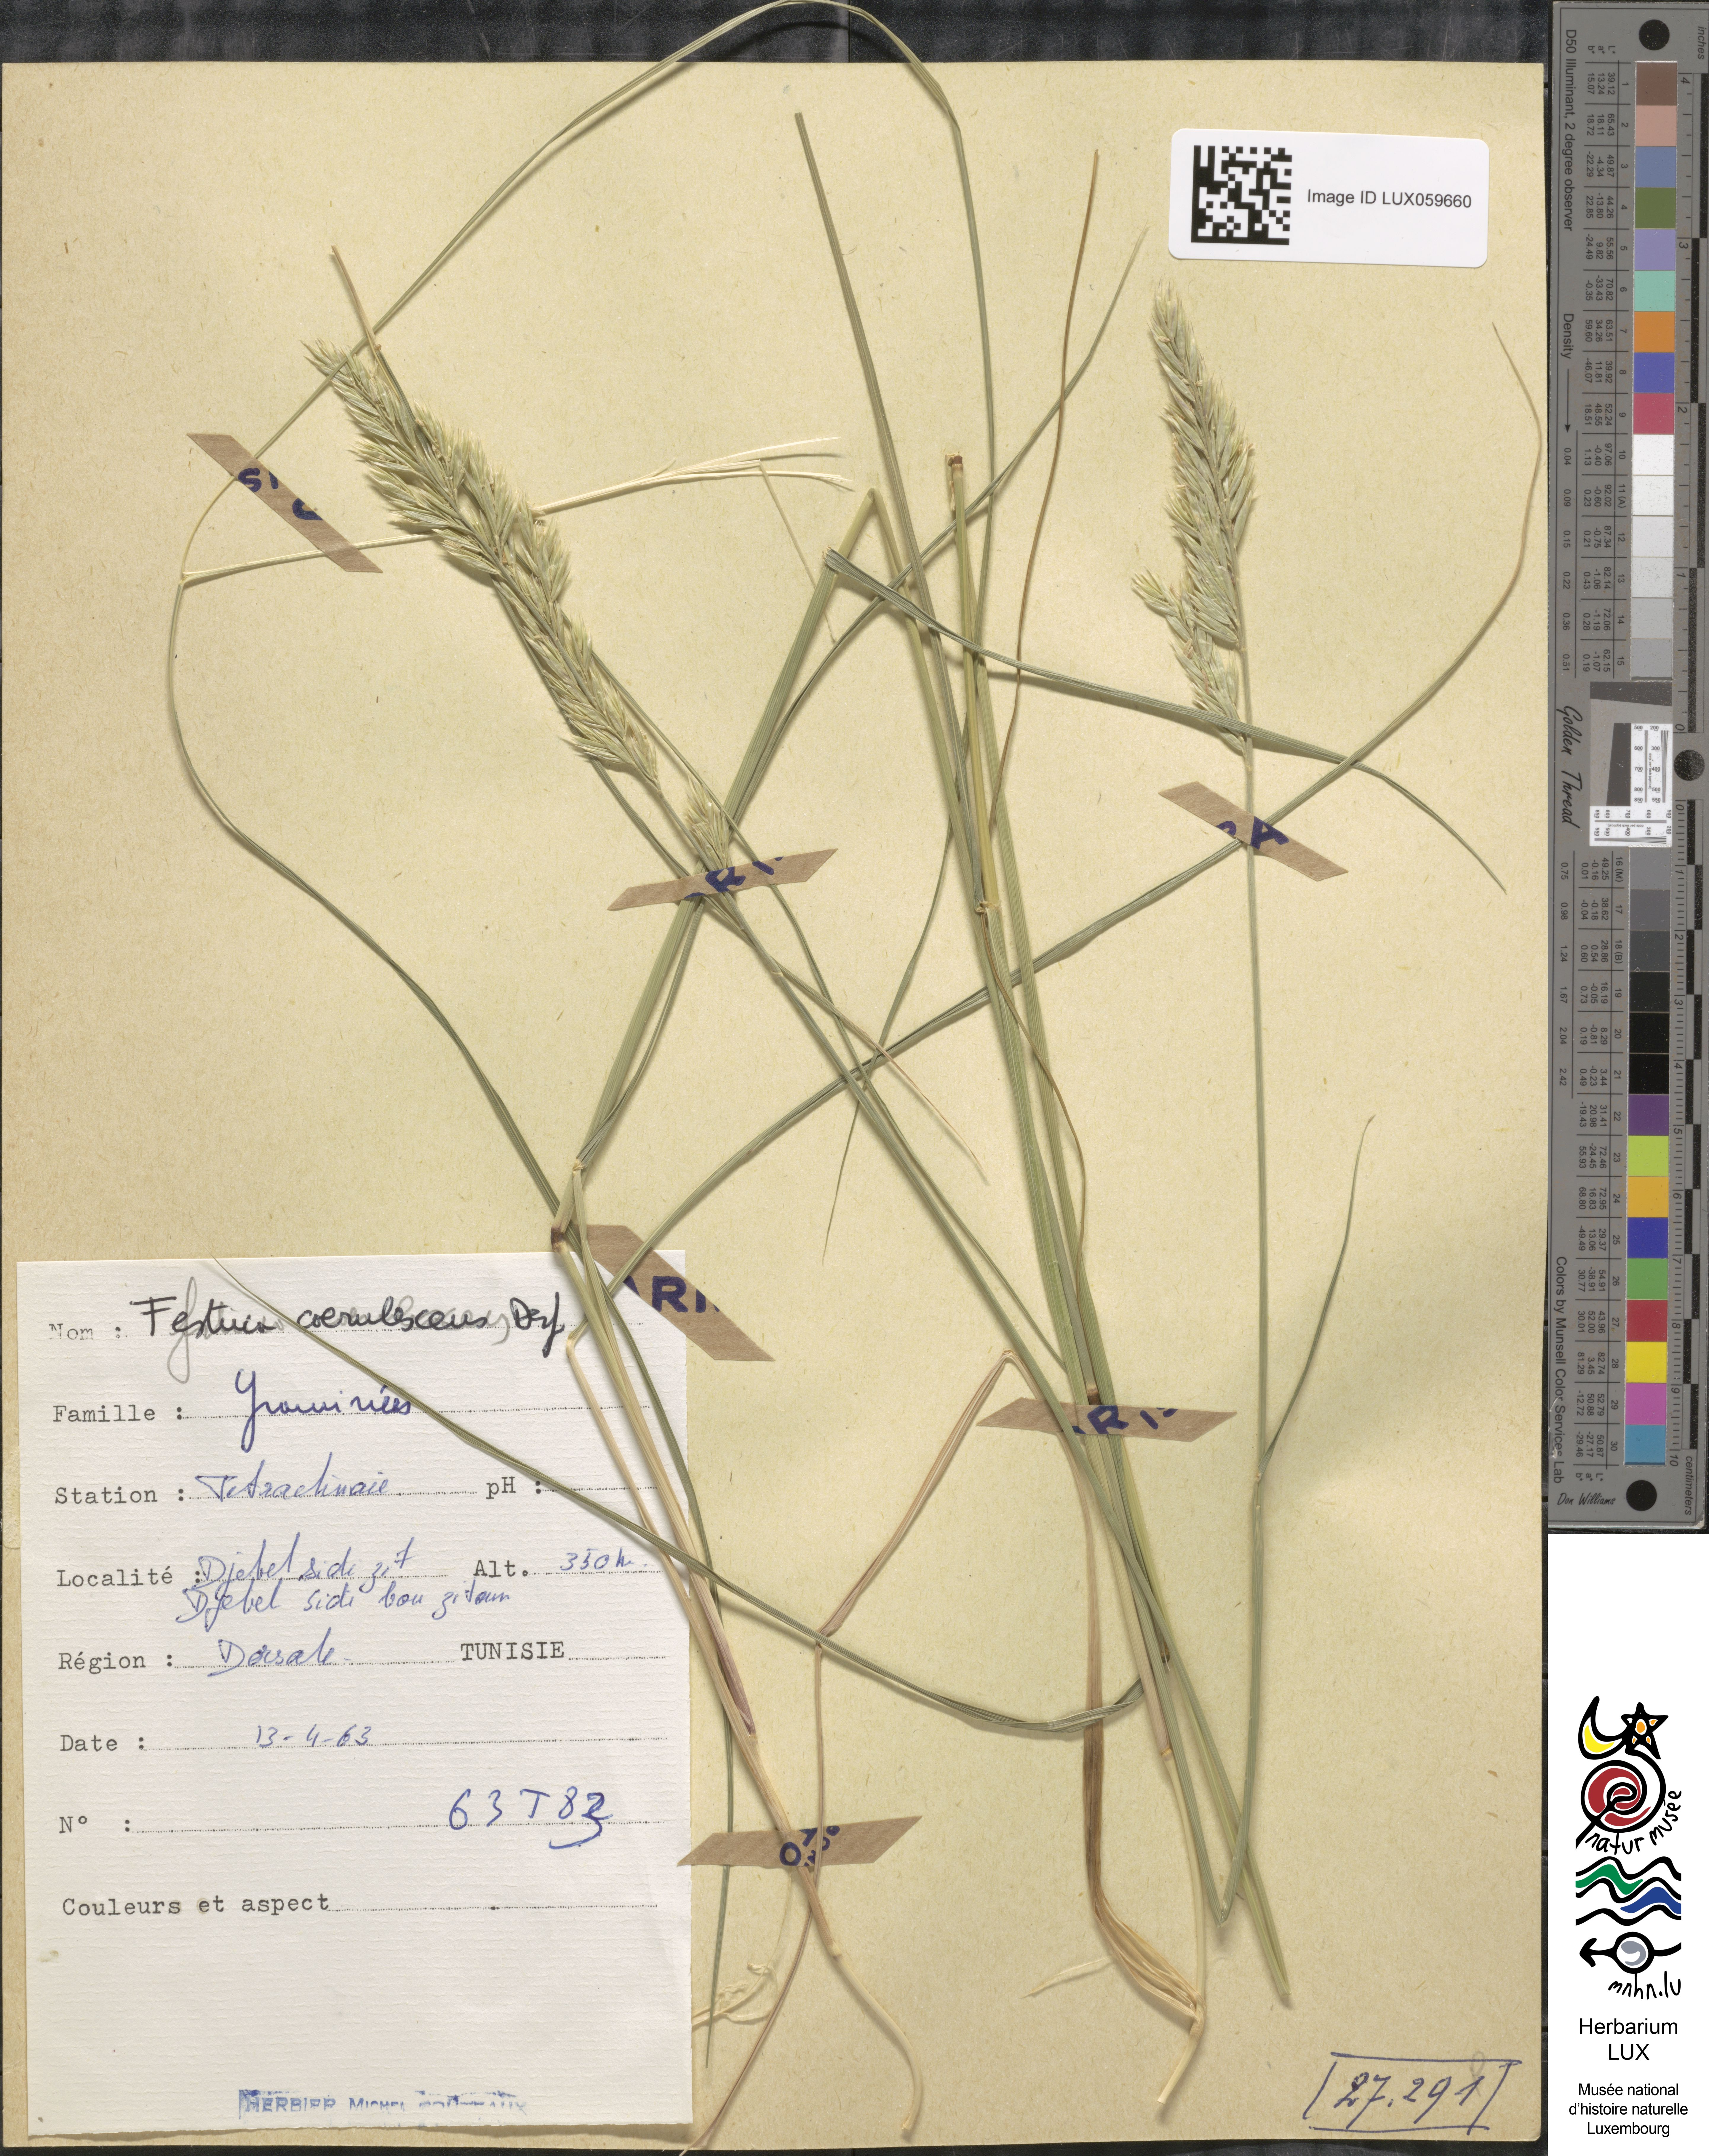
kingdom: Plantae
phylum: Tracheophyta
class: Liliopsida
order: Poales
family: Poaceae
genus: Festuca
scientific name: Festuca caerulescens
